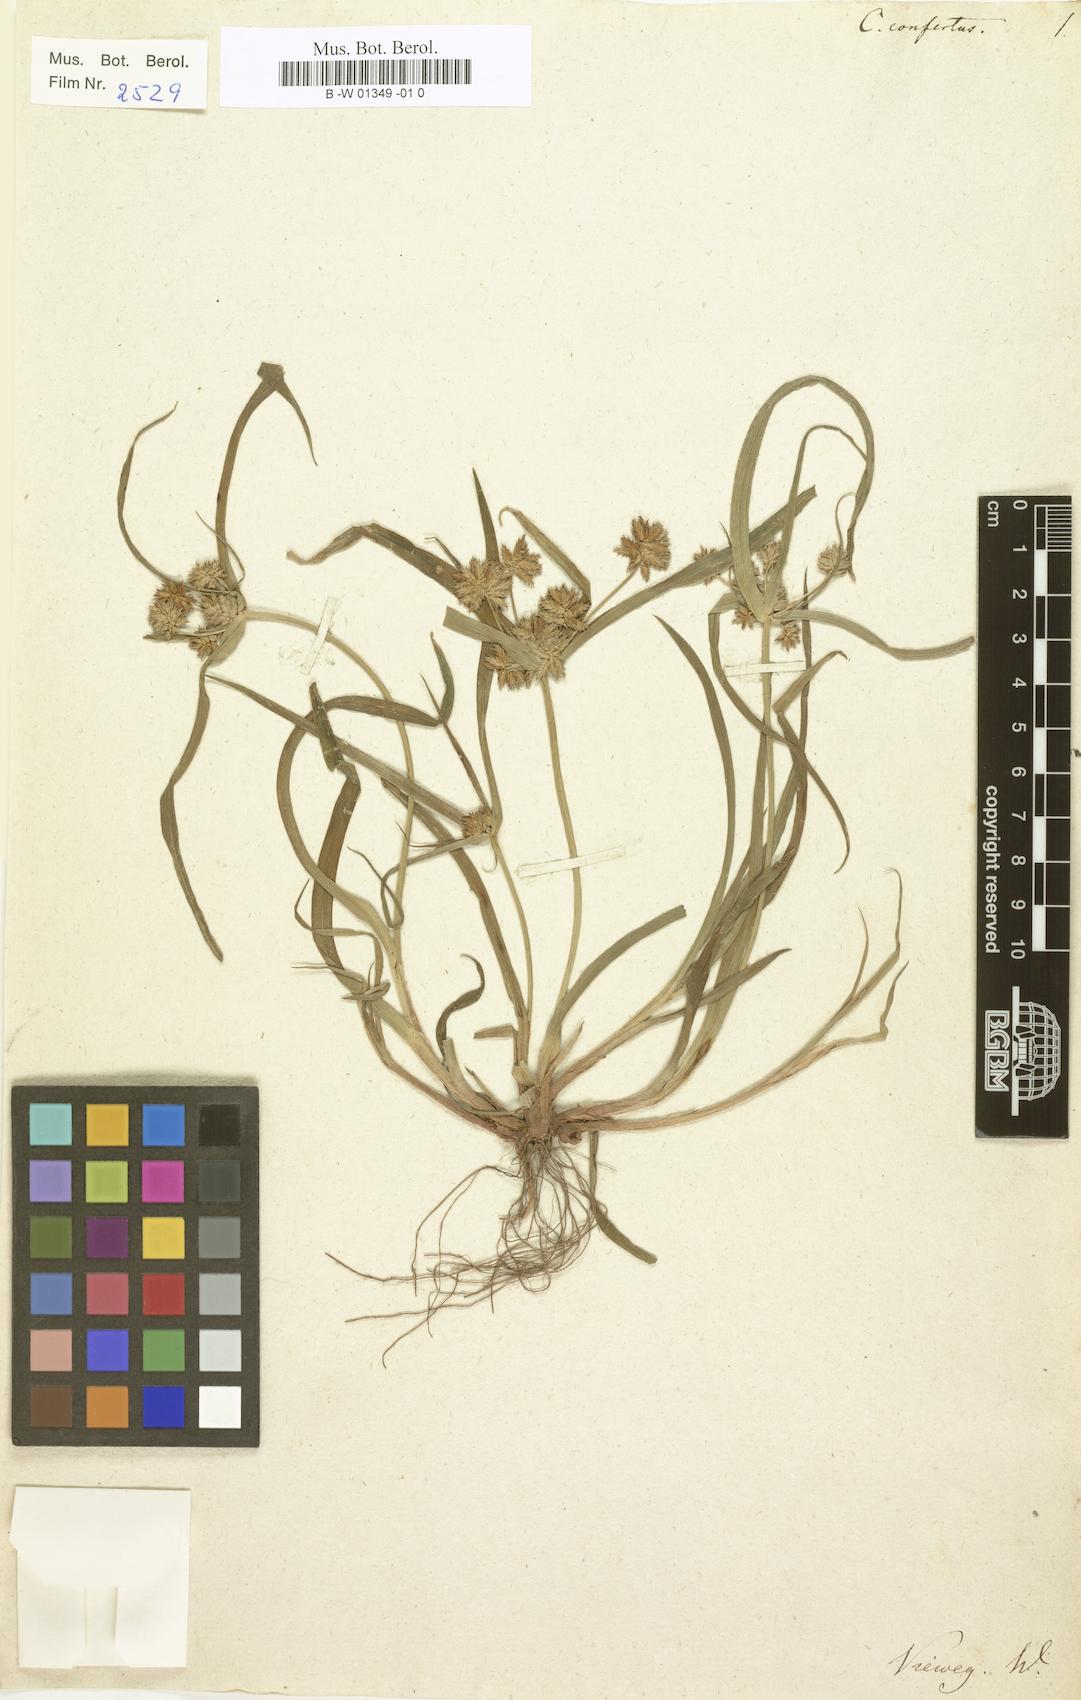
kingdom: Plantae
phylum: Tracheophyta
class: Liliopsida
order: Poales
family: Cyperaceae
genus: Cyperus
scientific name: Cyperus confertus
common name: West indian flatsedge
